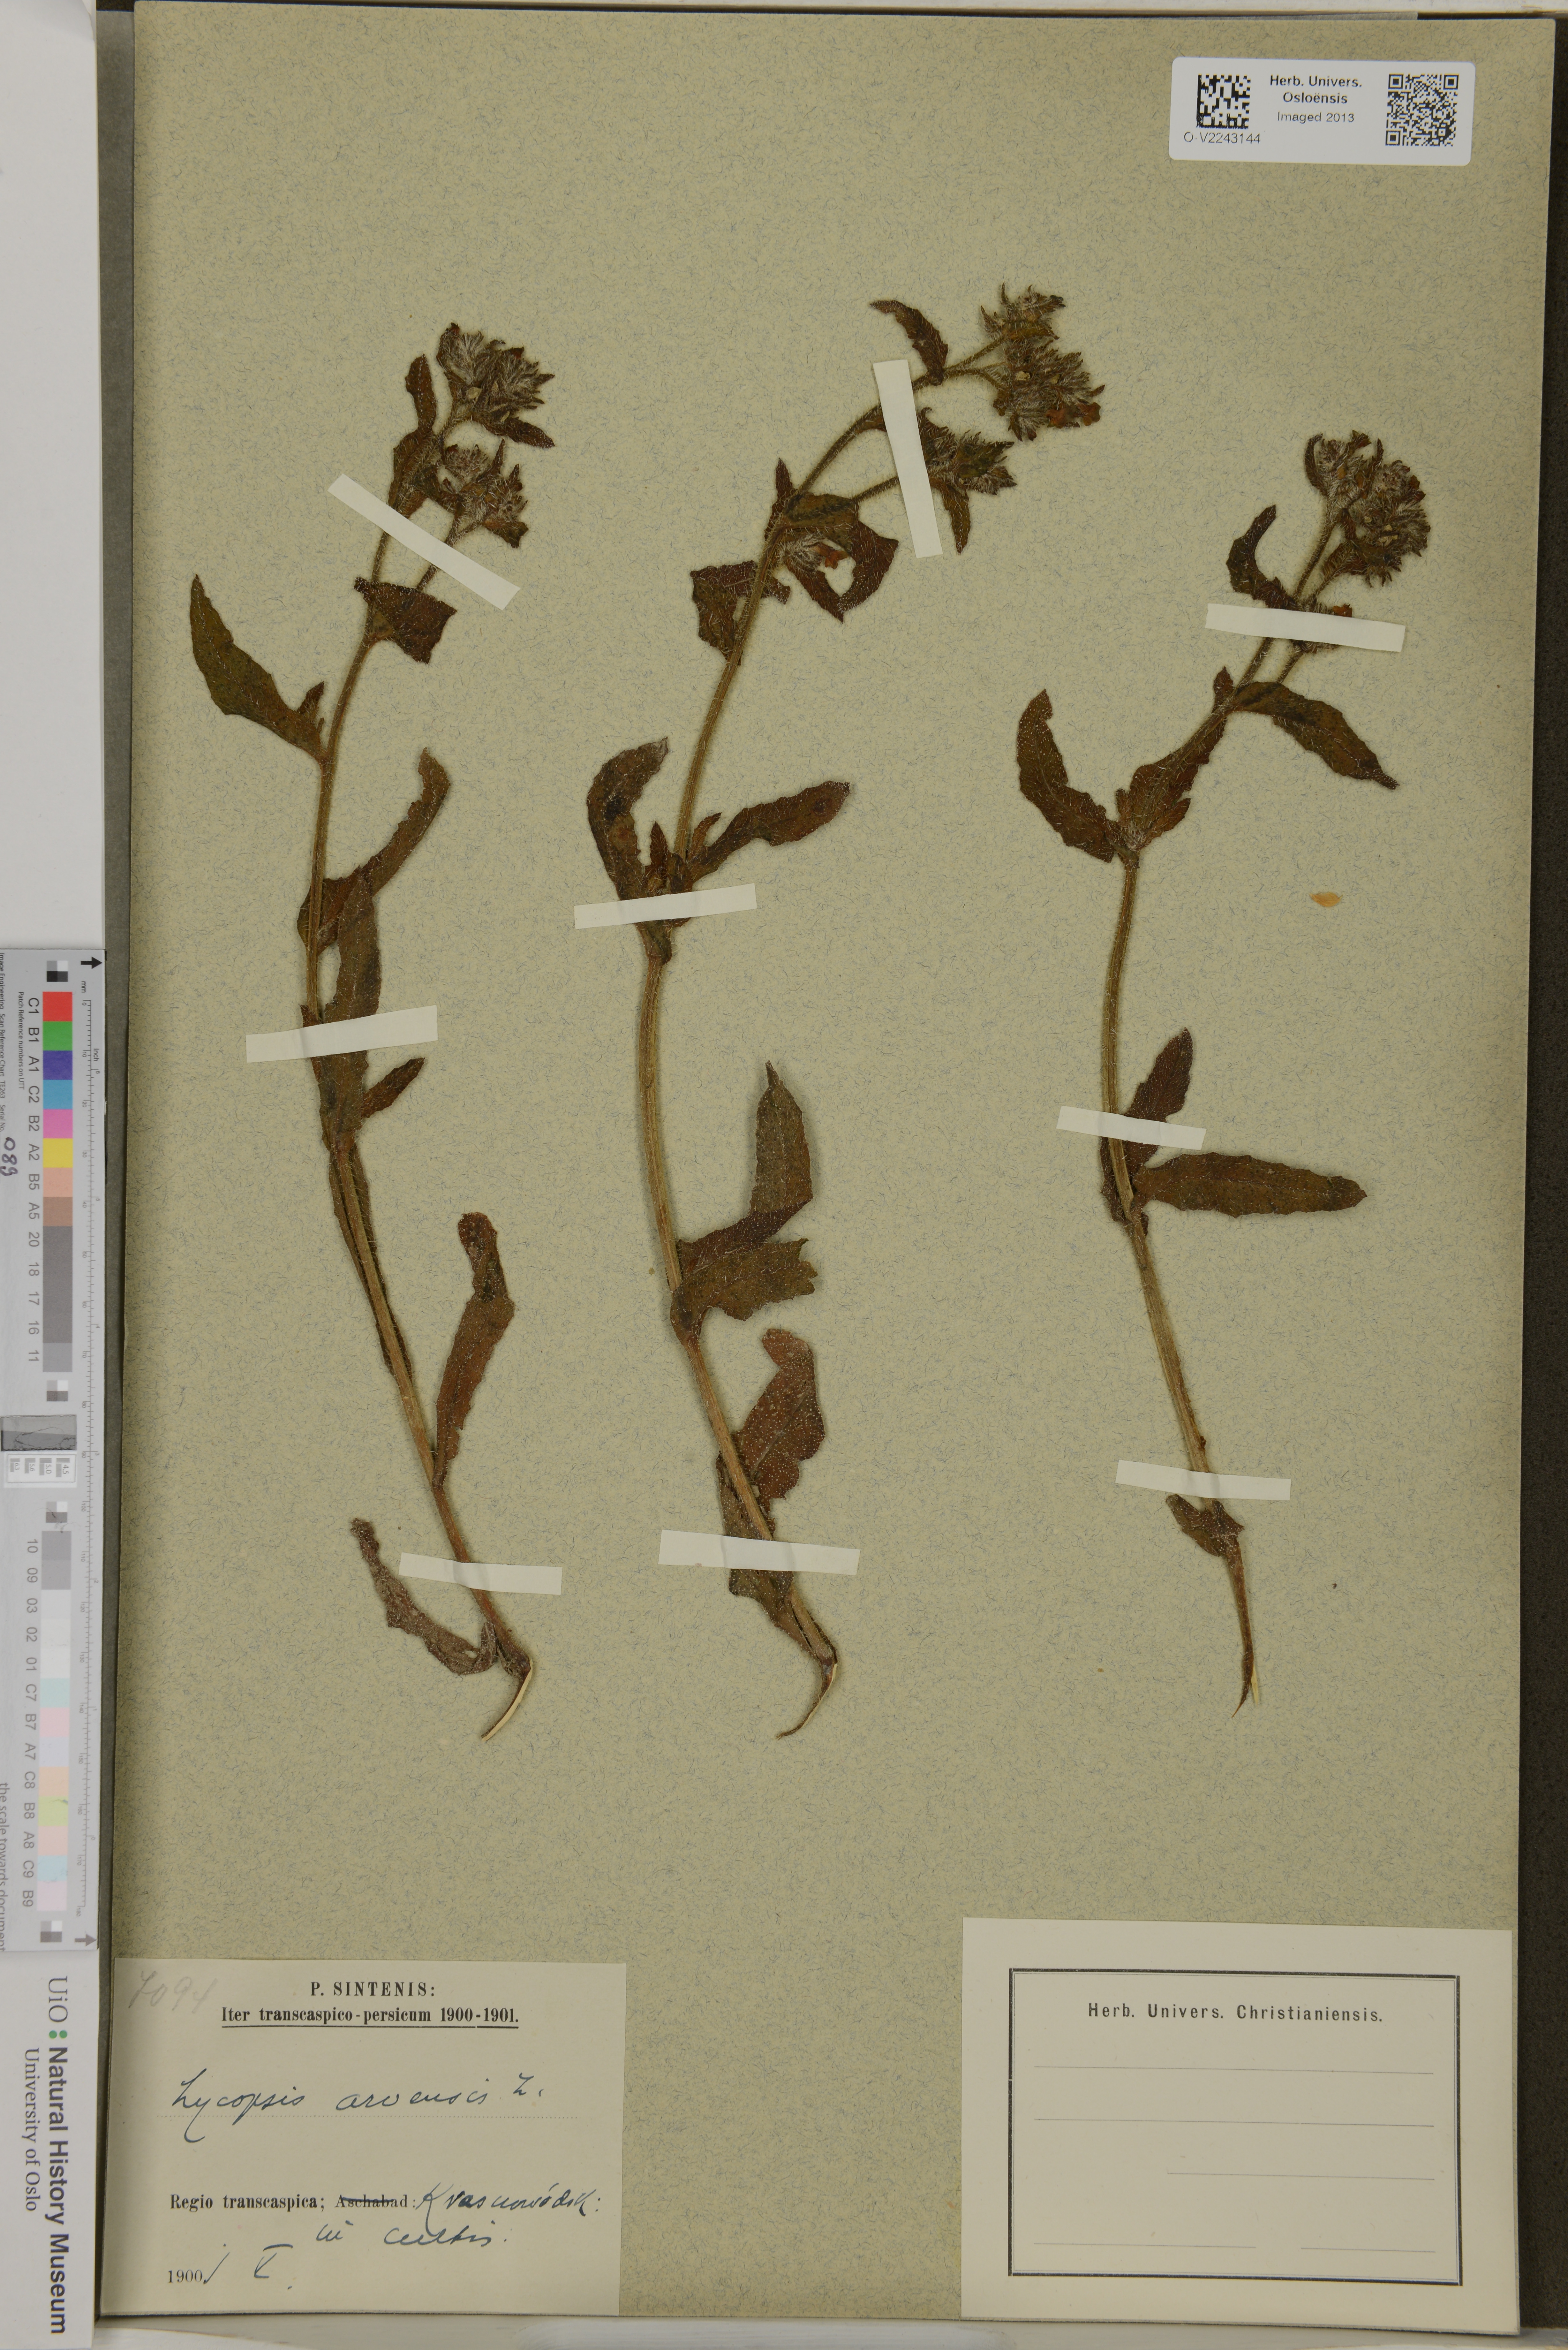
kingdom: Plantae
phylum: Tracheophyta
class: Magnoliopsida
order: Boraginales
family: Boraginaceae
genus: Lycopsis
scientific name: Lycopsis arvensis
